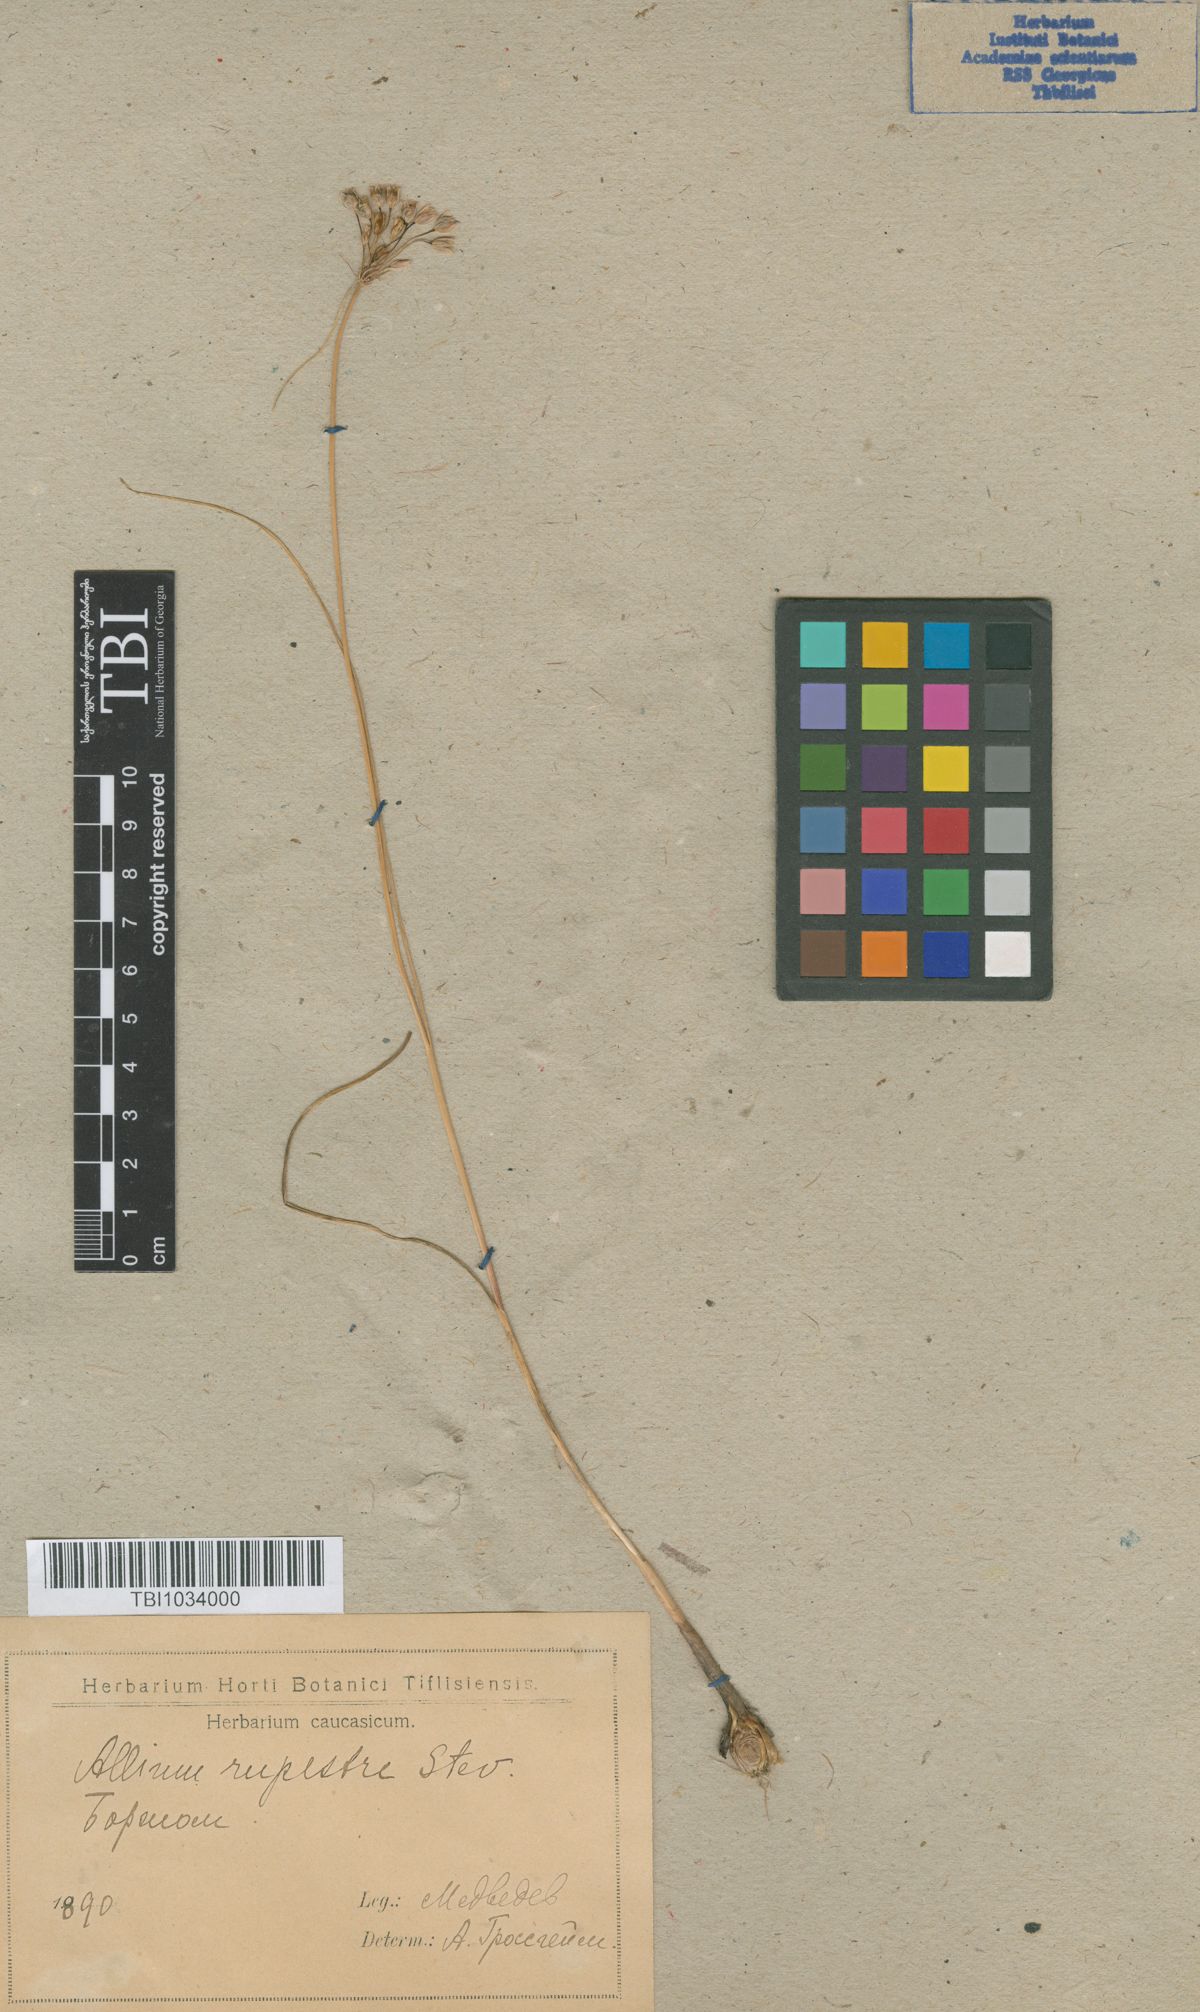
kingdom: Plantae
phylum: Tracheophyta
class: Liliopsida
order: Asparagales
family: Amaryllidaceae
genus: Allium
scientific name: Allium rupestre
